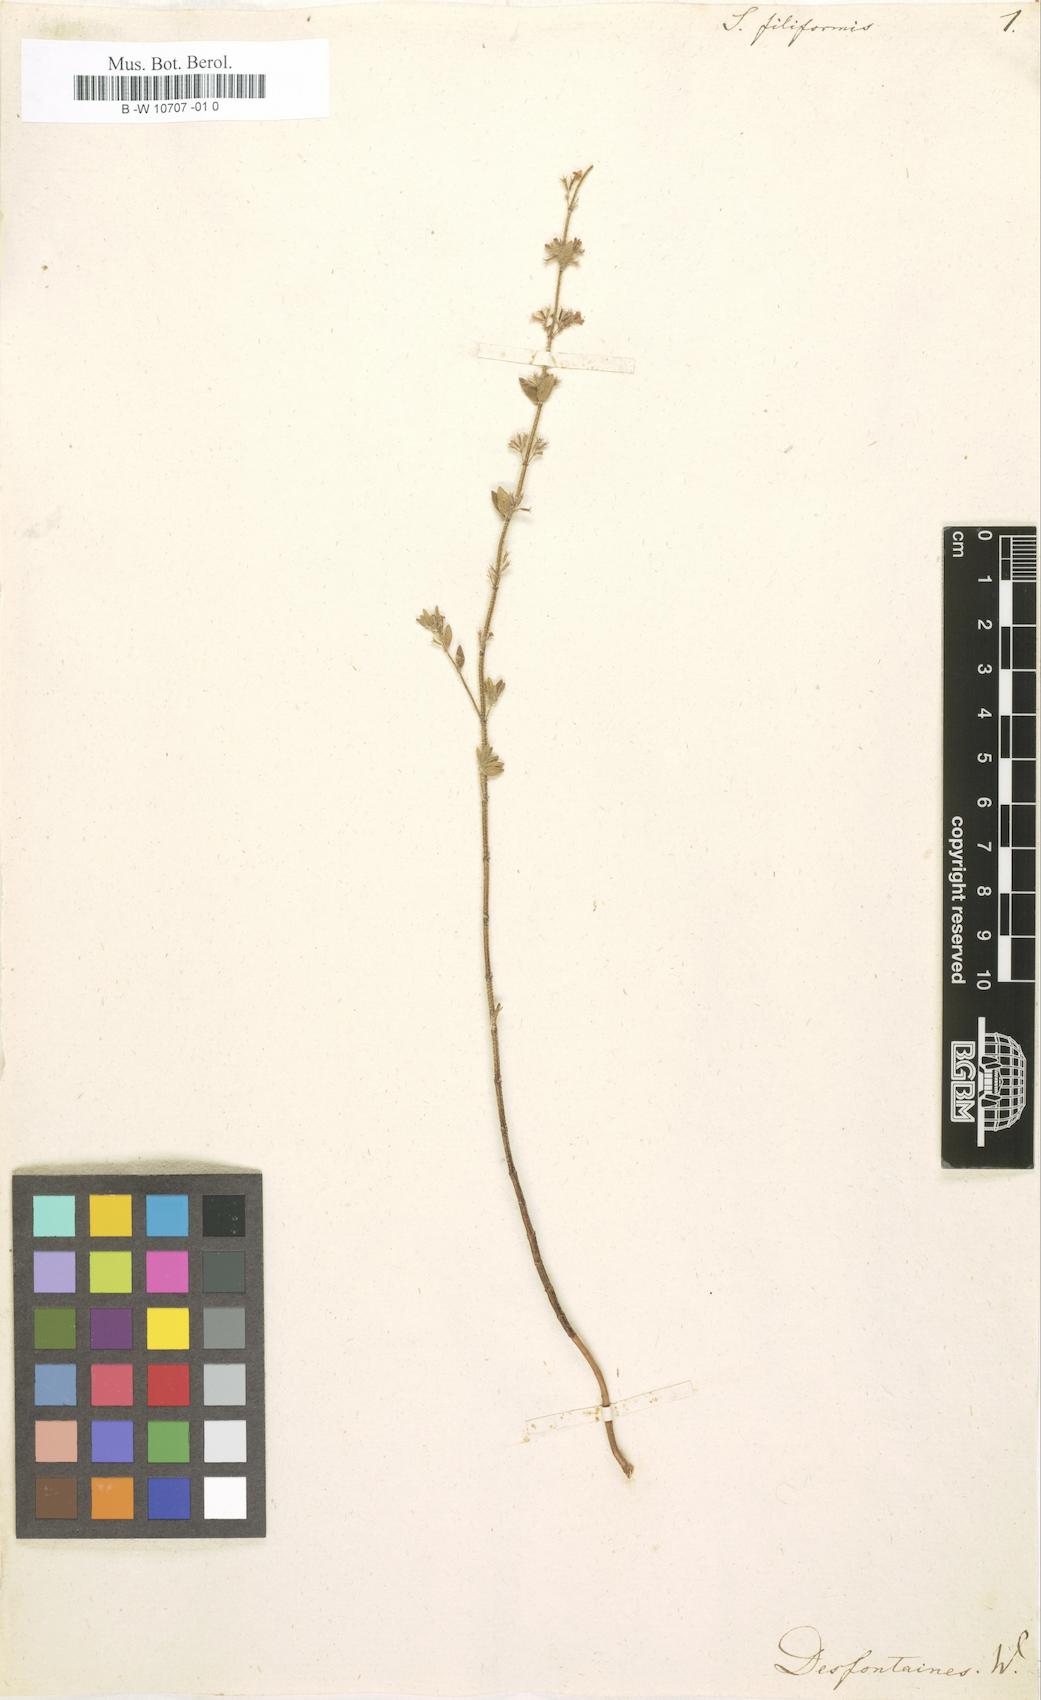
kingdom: Plantae
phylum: Tracheophyta
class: Magnoliopsida
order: Lamiales
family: Lamiaceae
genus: Satureja
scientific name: Satureja filiformis
